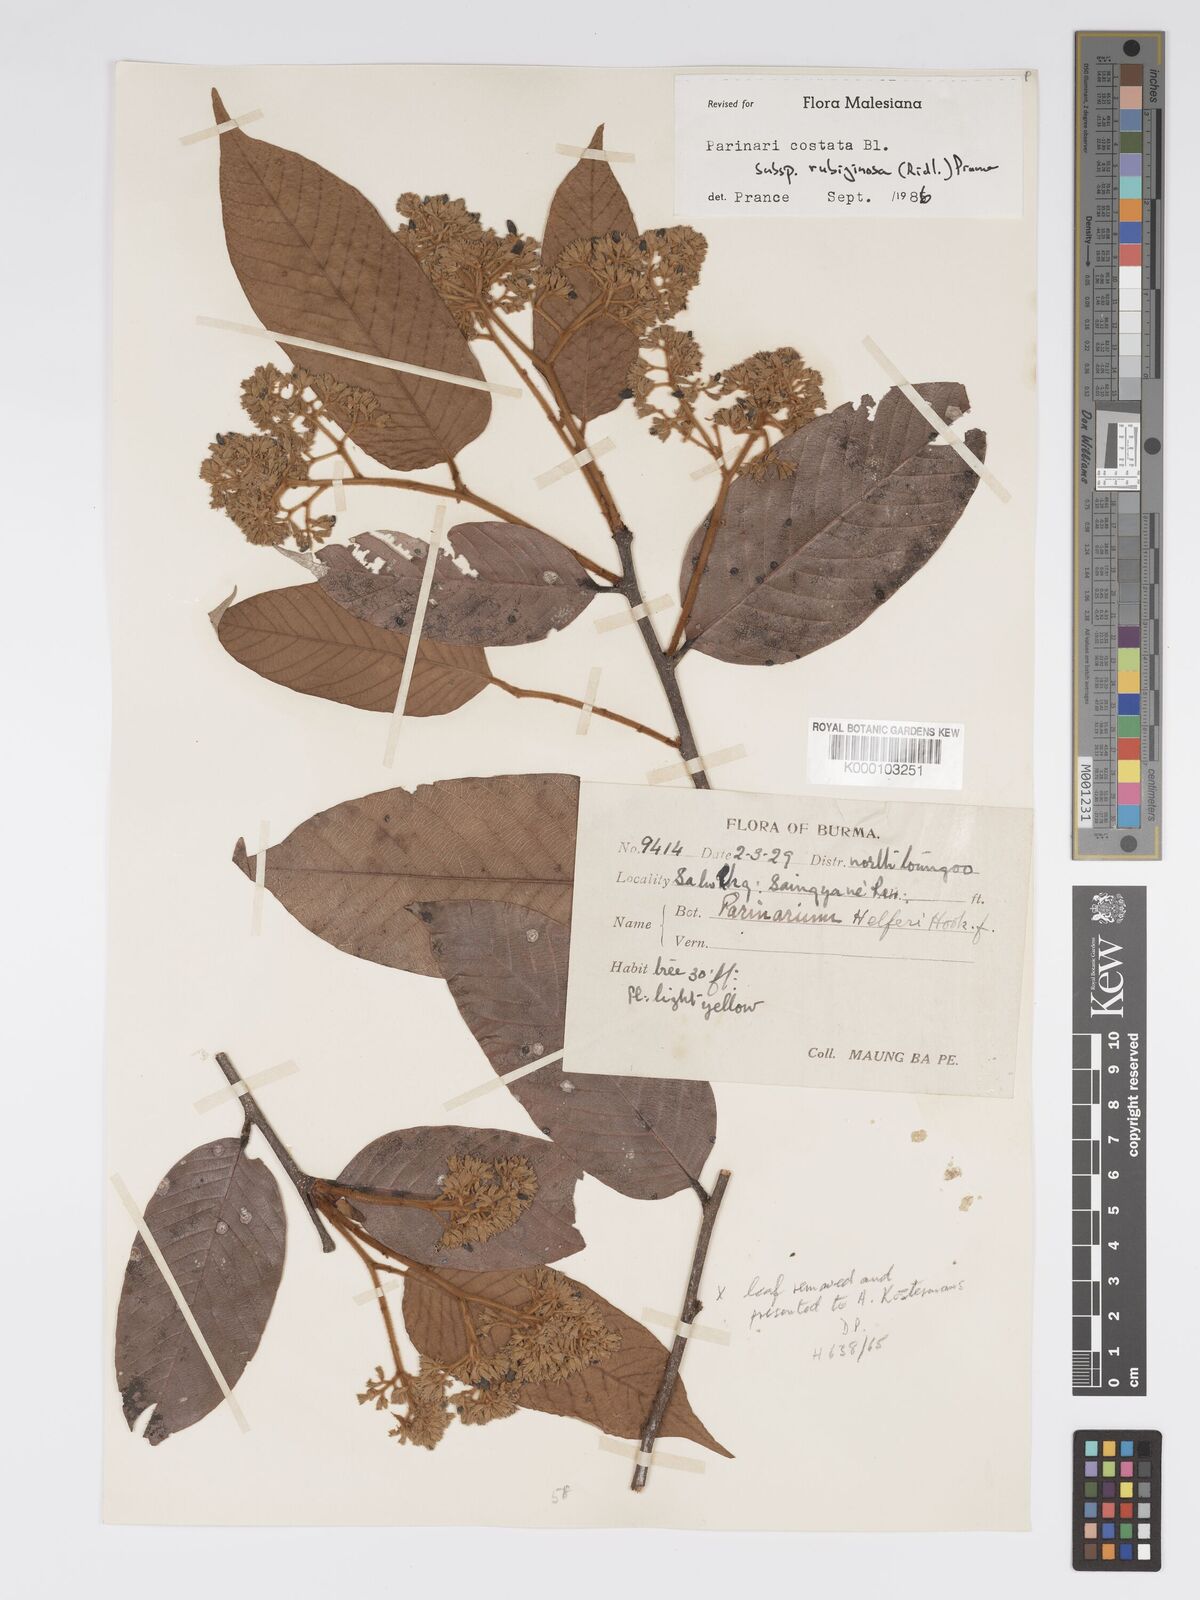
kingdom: Plantae
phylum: Tracheophyta
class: Magnoliopsida
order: Malpighiales
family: Chrysobalanaceae
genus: Parinari
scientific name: Parinari costata
